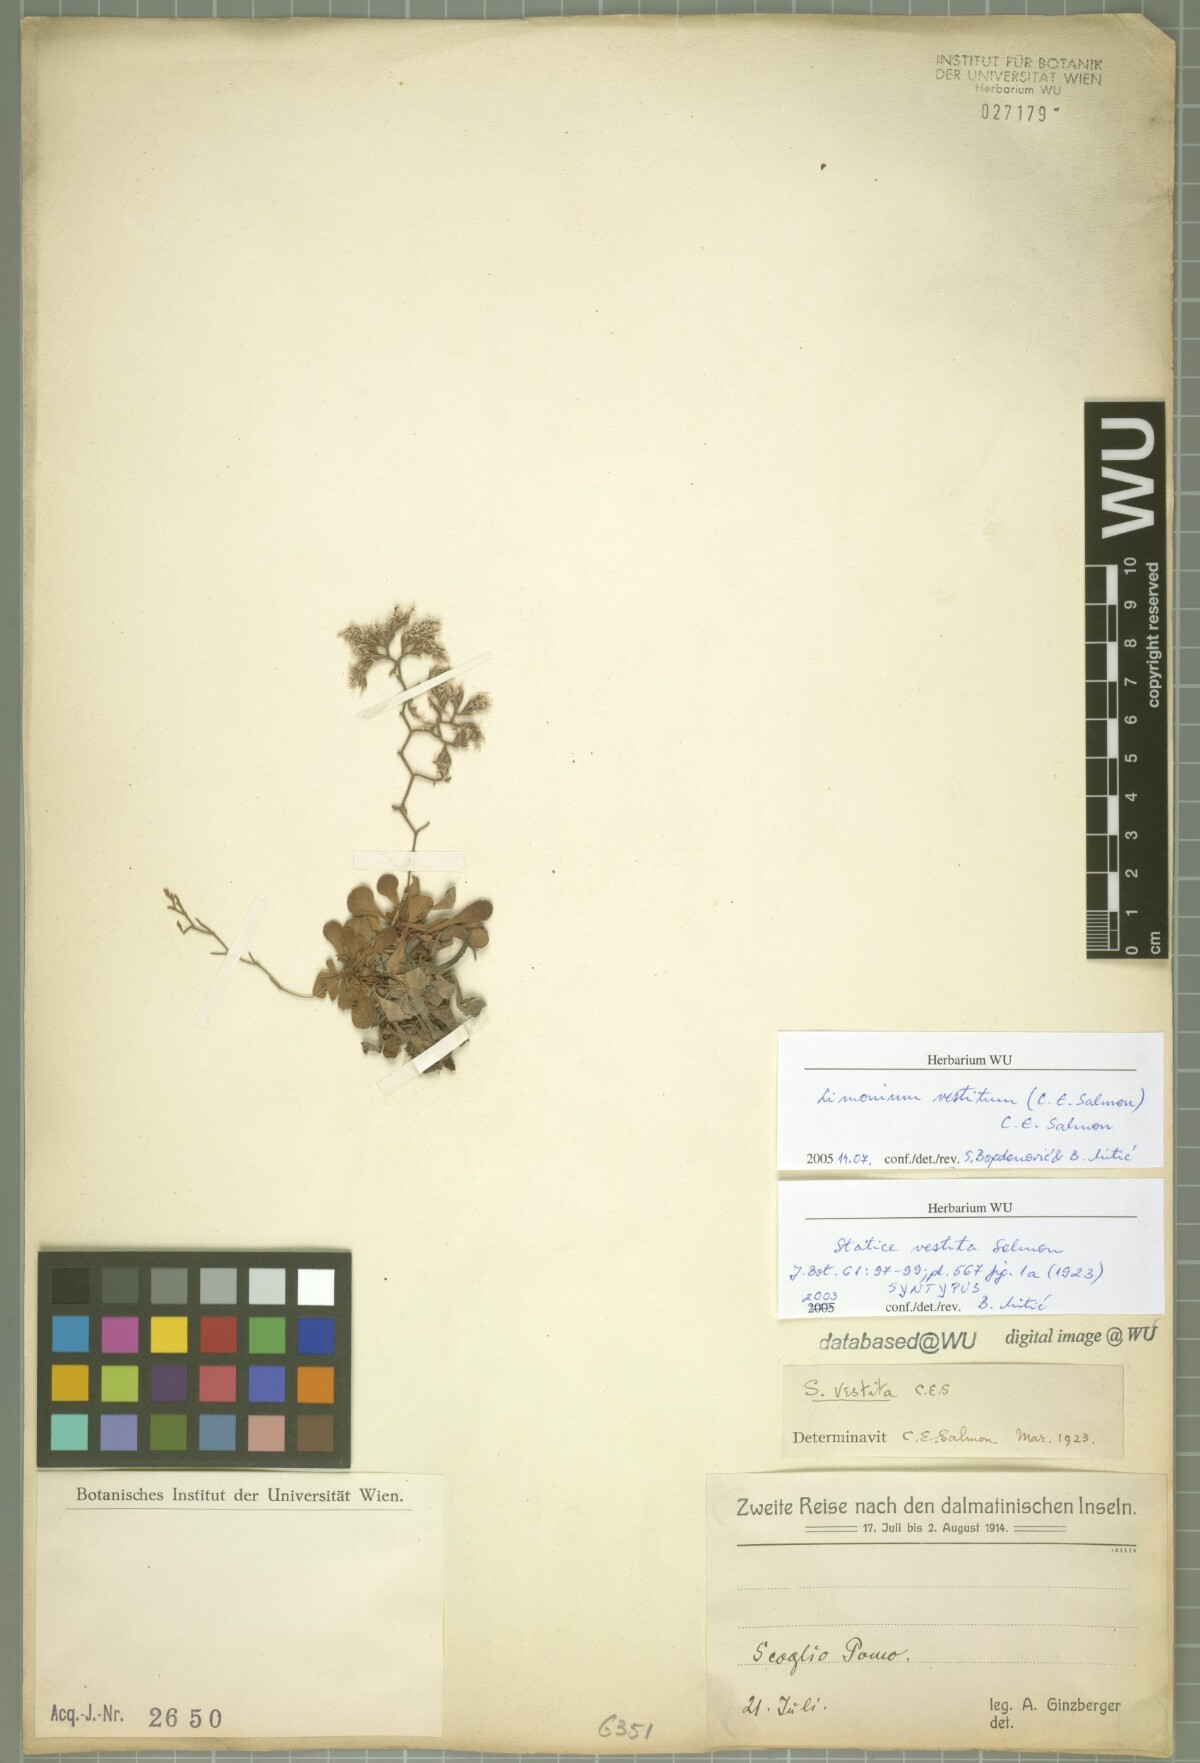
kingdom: Plantae
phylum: Tracheophyta
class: Magnoliopsida
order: Caryophyllales
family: Plumbaginaceae
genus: Limonium
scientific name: Limonium vestitum
